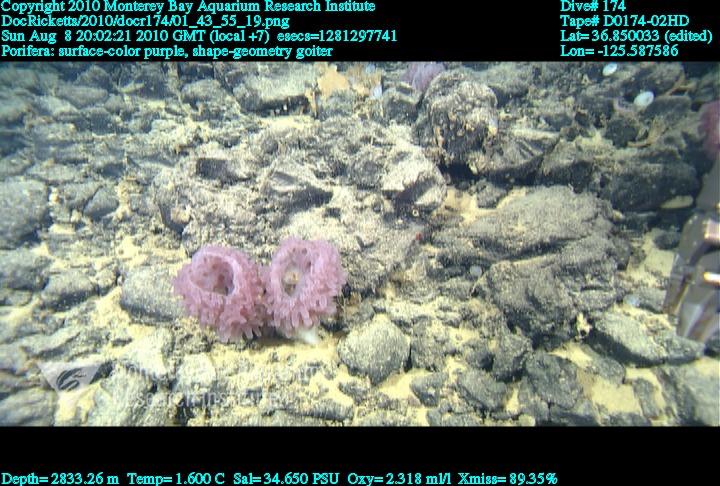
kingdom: Animalia
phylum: Porifera
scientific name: Porifera
